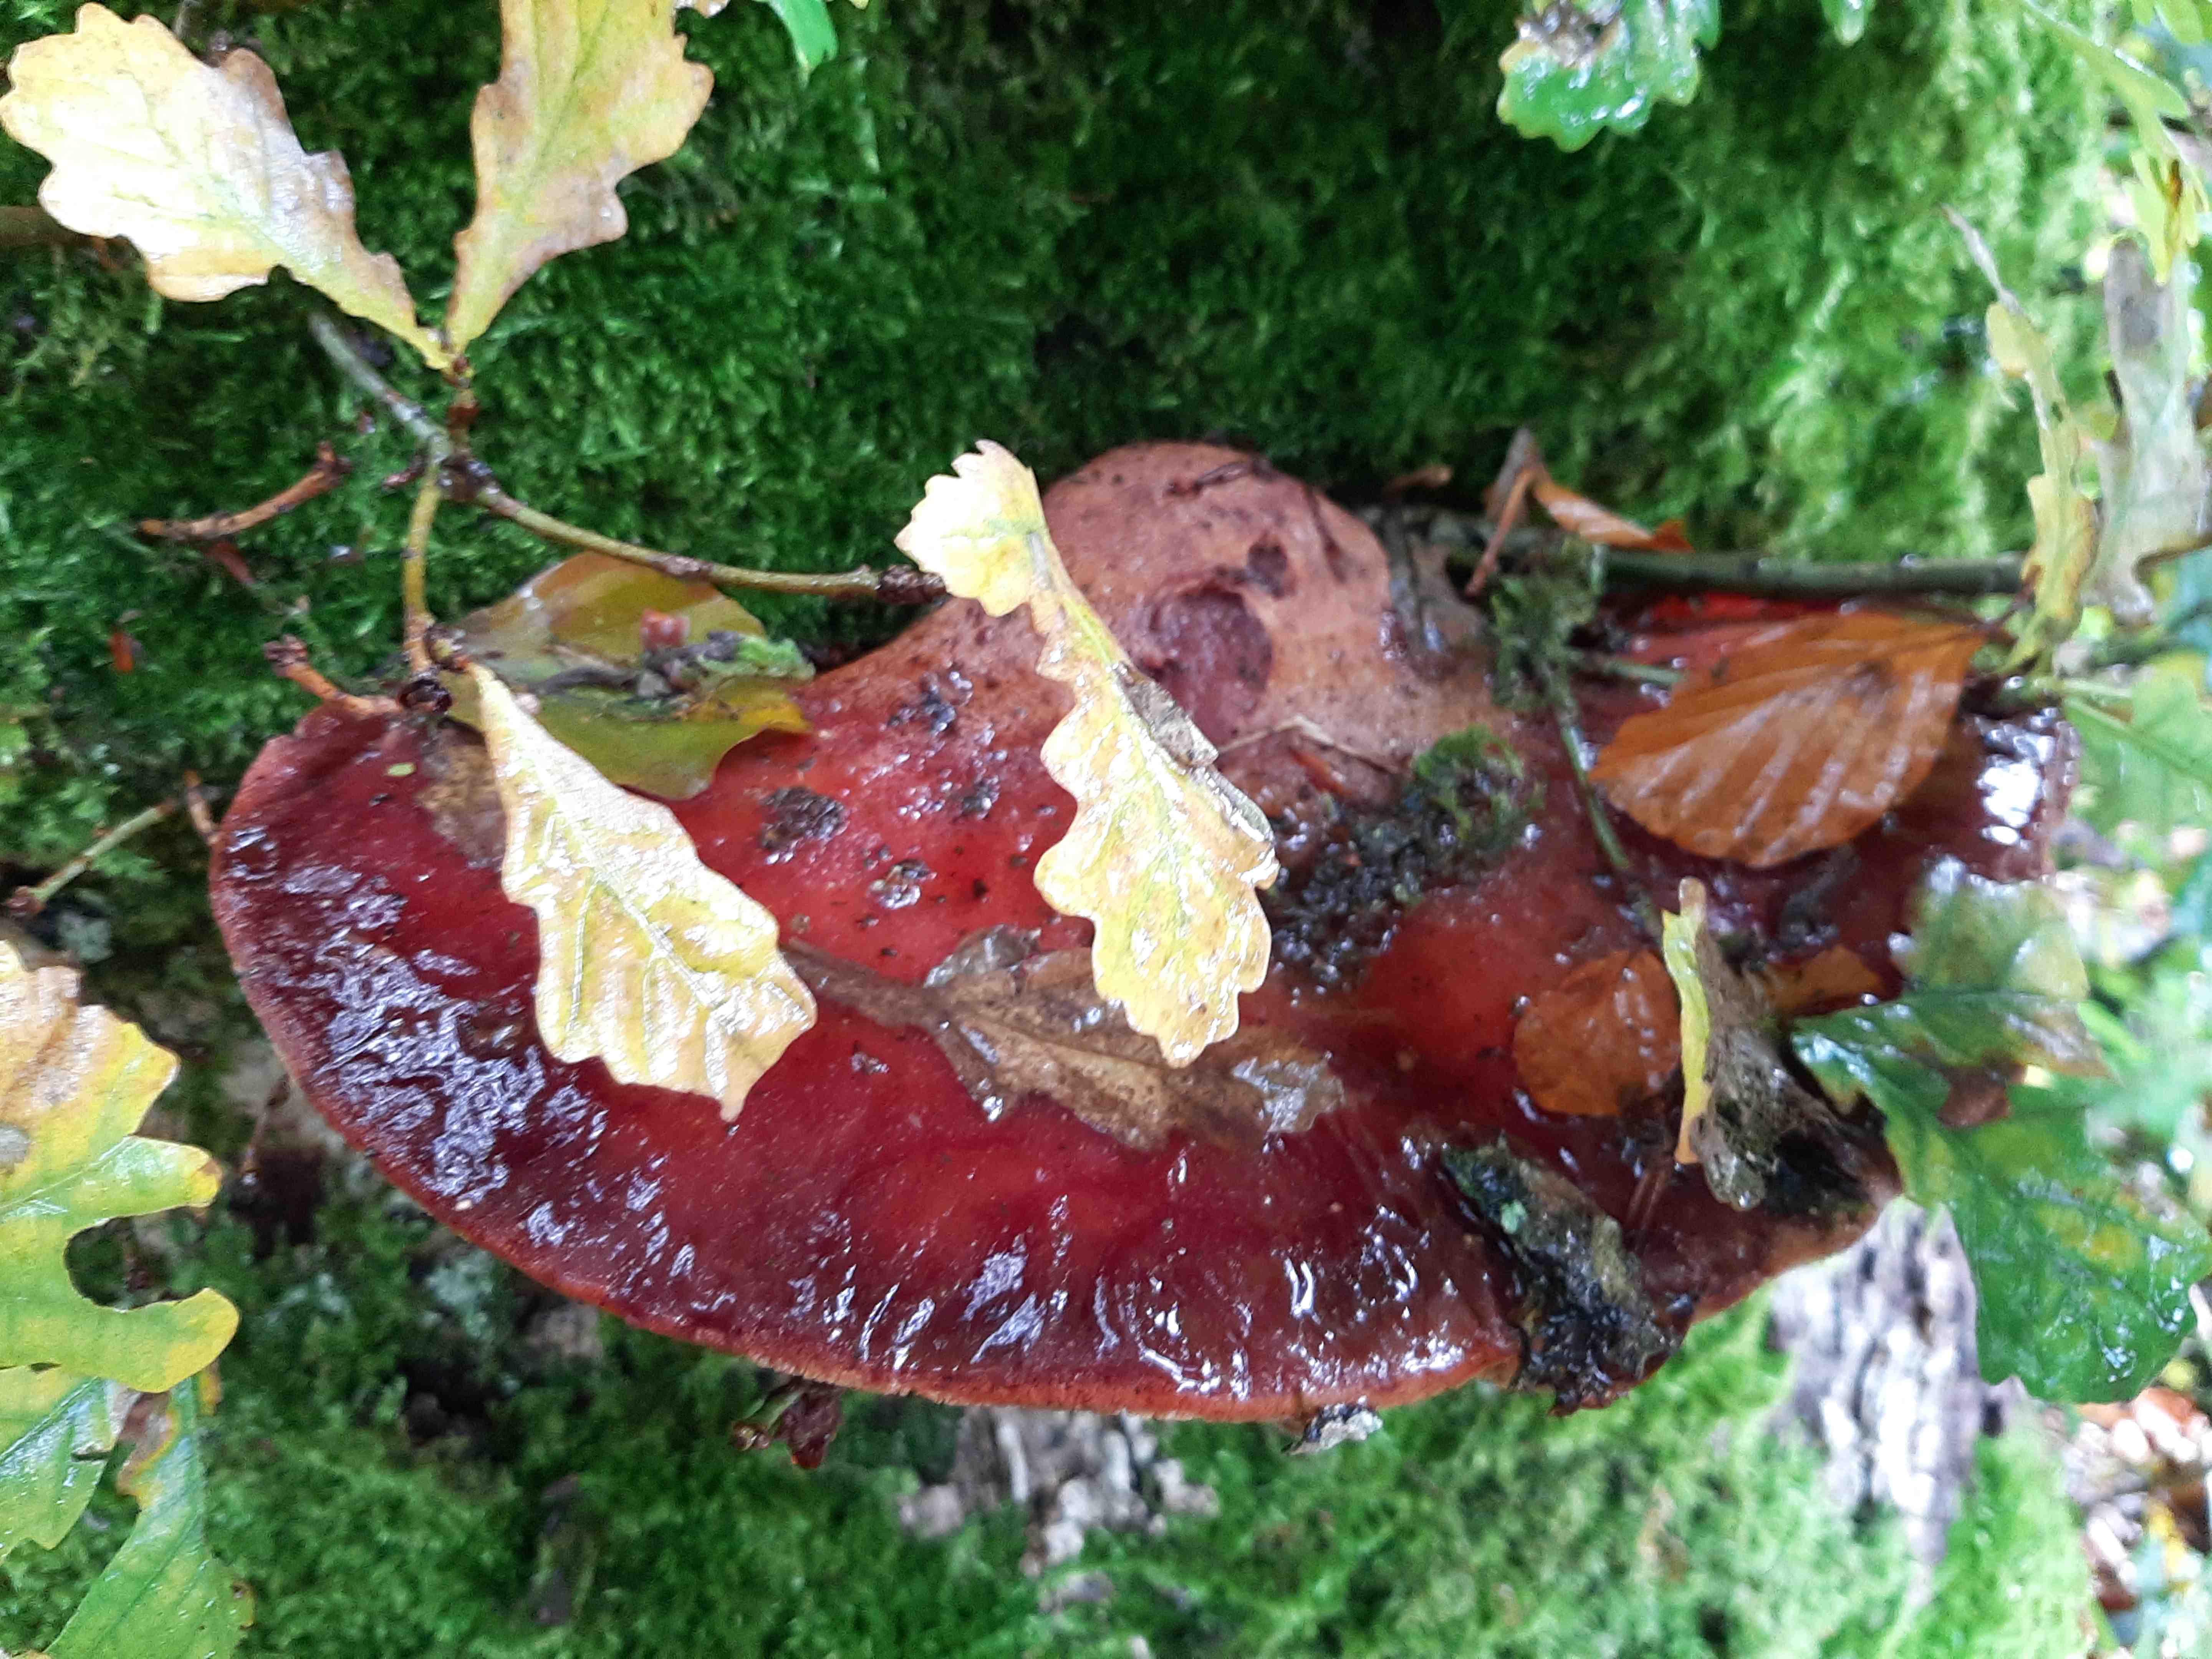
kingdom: Fungi
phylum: Basidiomycota
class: Agaricomycetes
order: Agaricales
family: Fistulinaceae
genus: Fistulina
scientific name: Fistulina hepatica
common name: oksetunge
